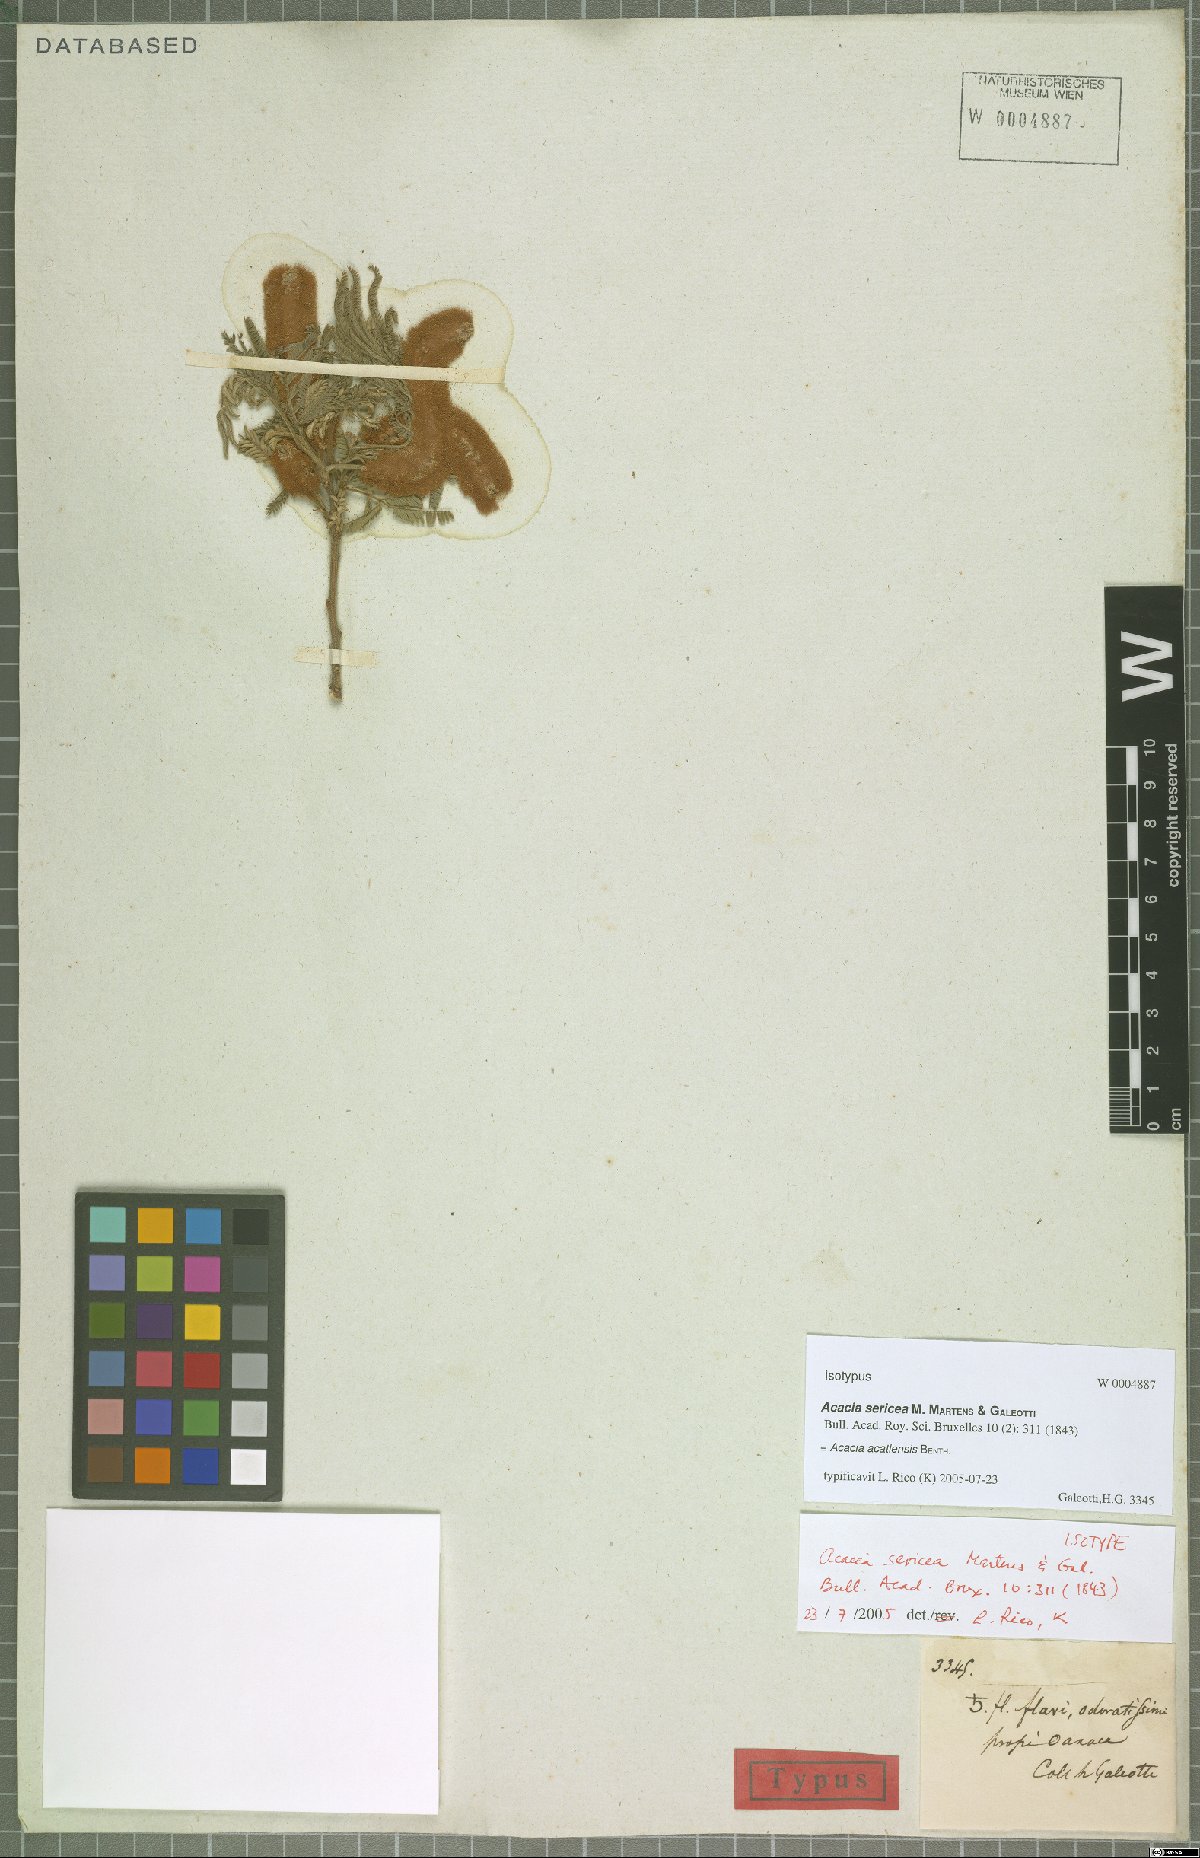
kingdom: Plantae
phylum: Tracheophyta
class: Magnoliopsida
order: Fabales
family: Fabaceae
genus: Mariosousa
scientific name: Mariosousa acatlensis
